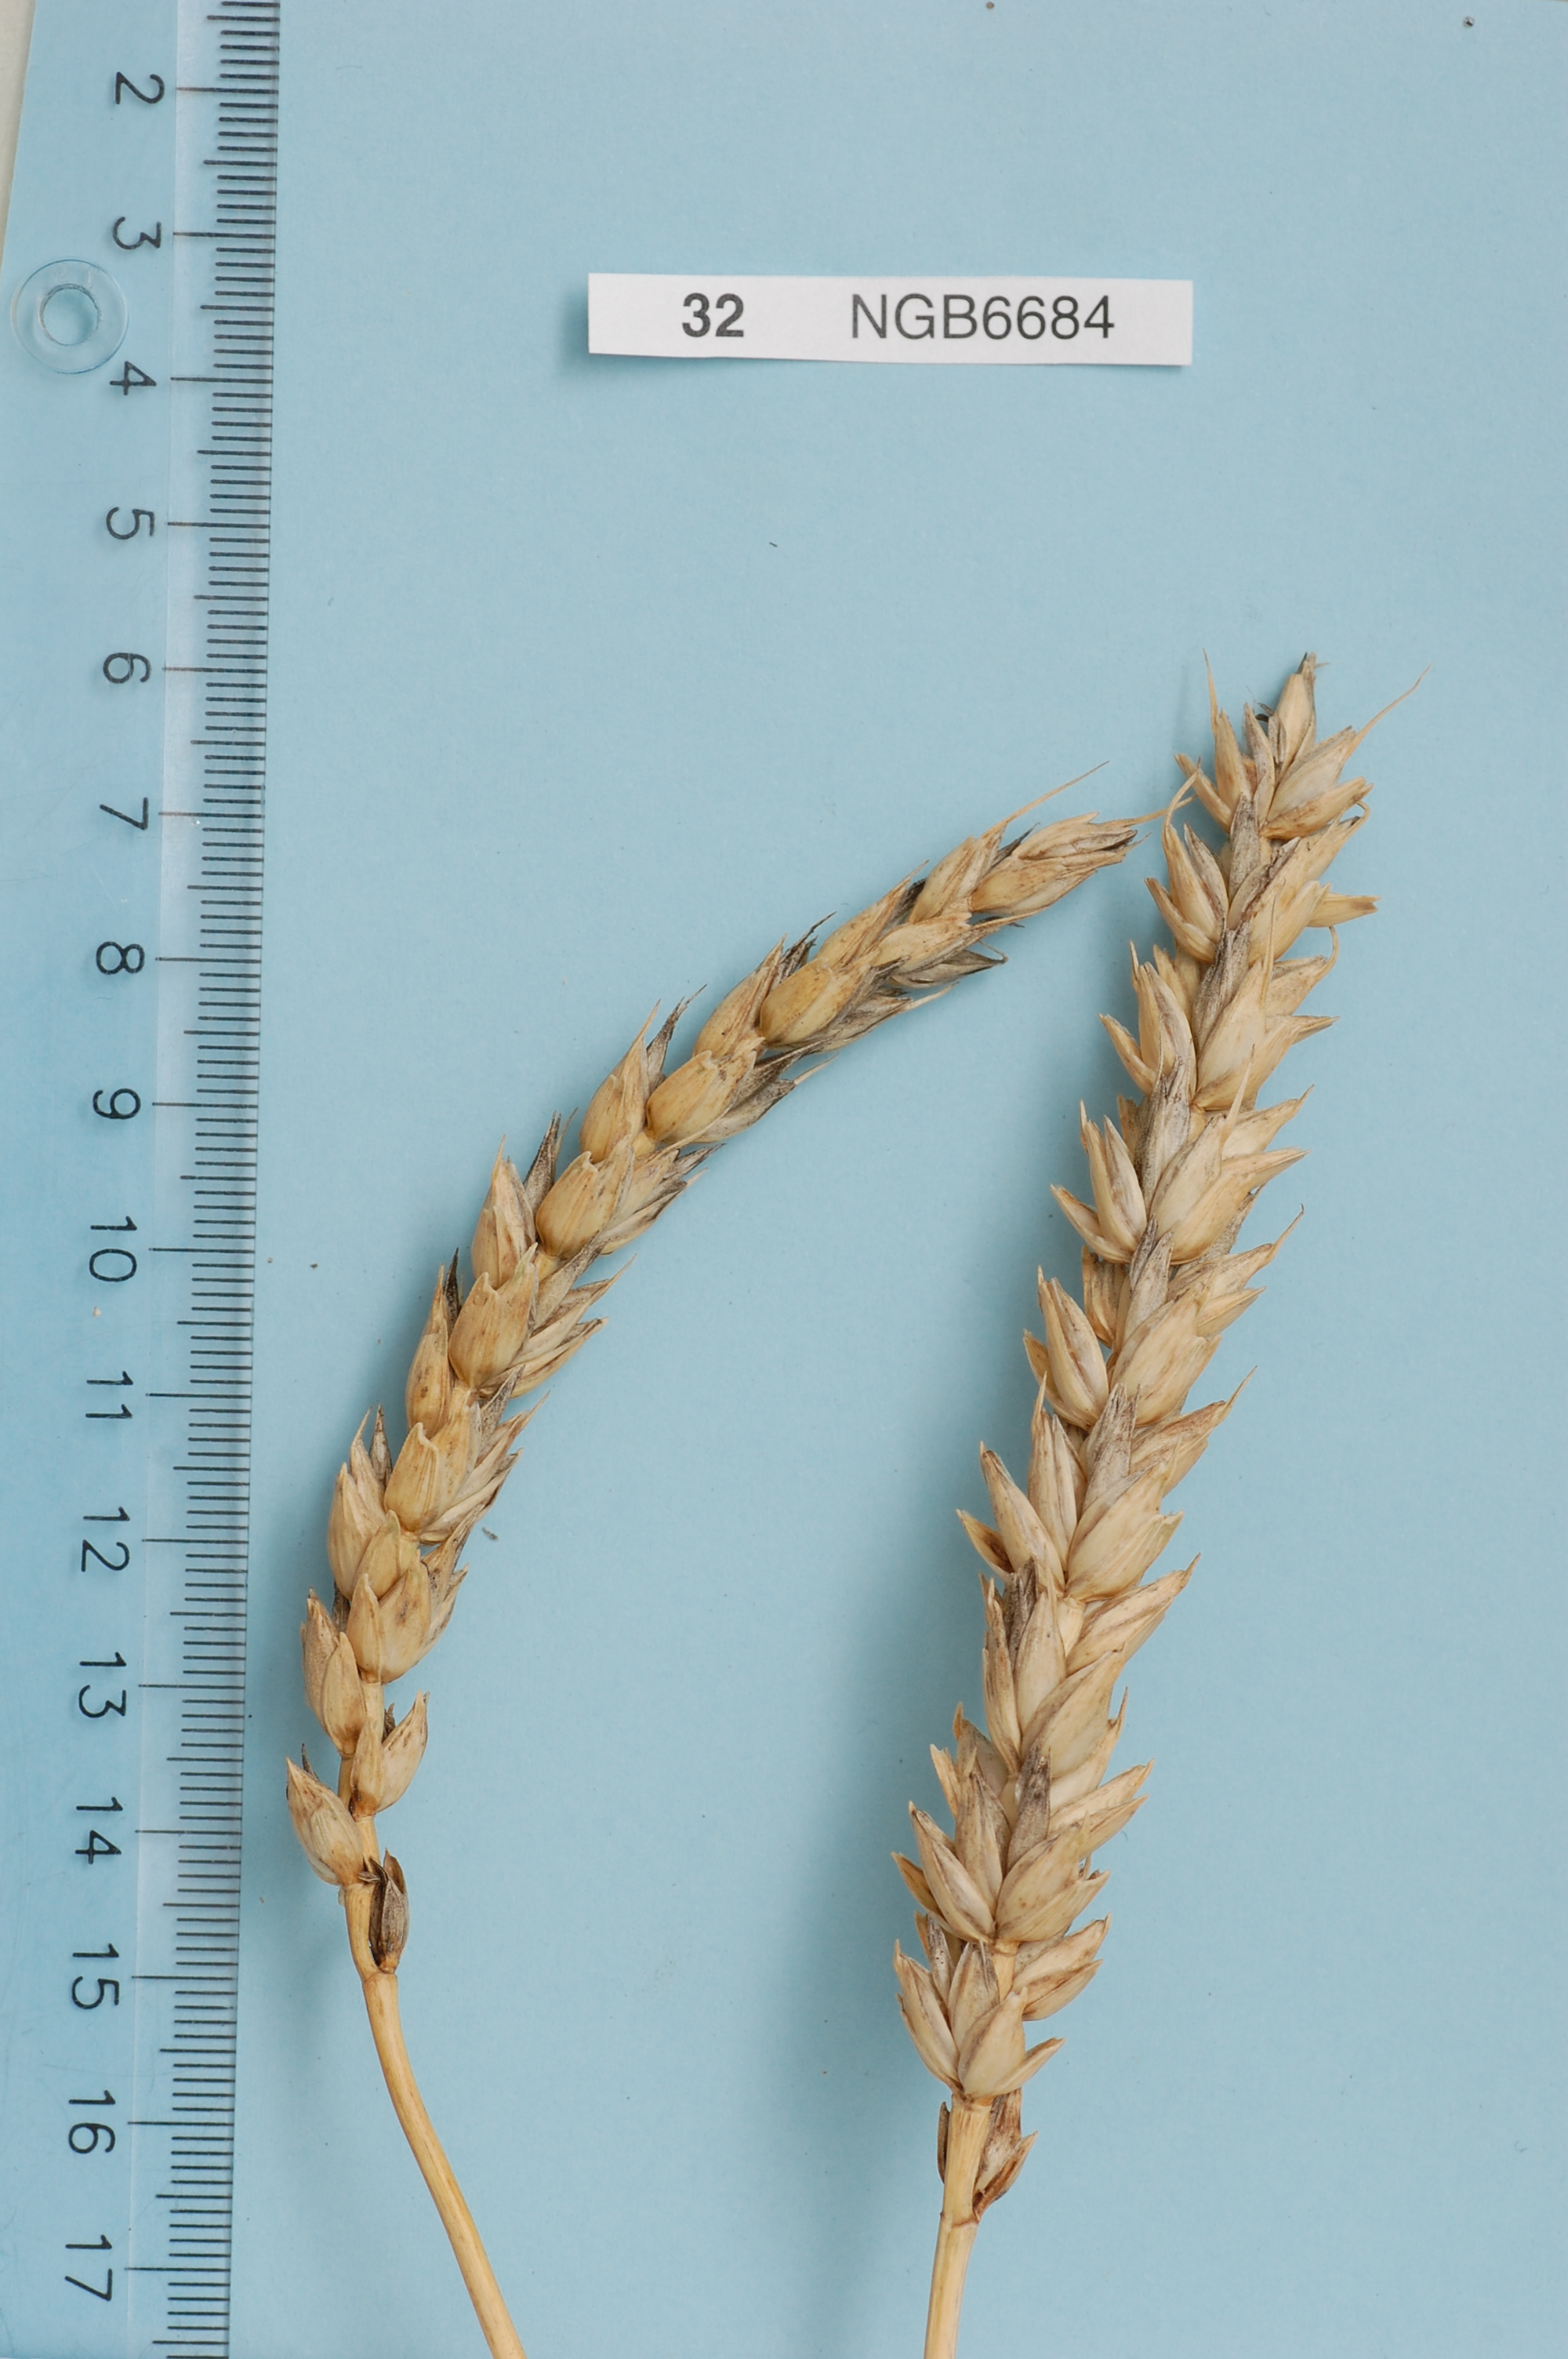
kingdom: Plantae
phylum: Tracheophyta
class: Liliopsida
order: Poales
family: Poaceae
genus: Triticum
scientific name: Triticum aestivum
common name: Common wheat
